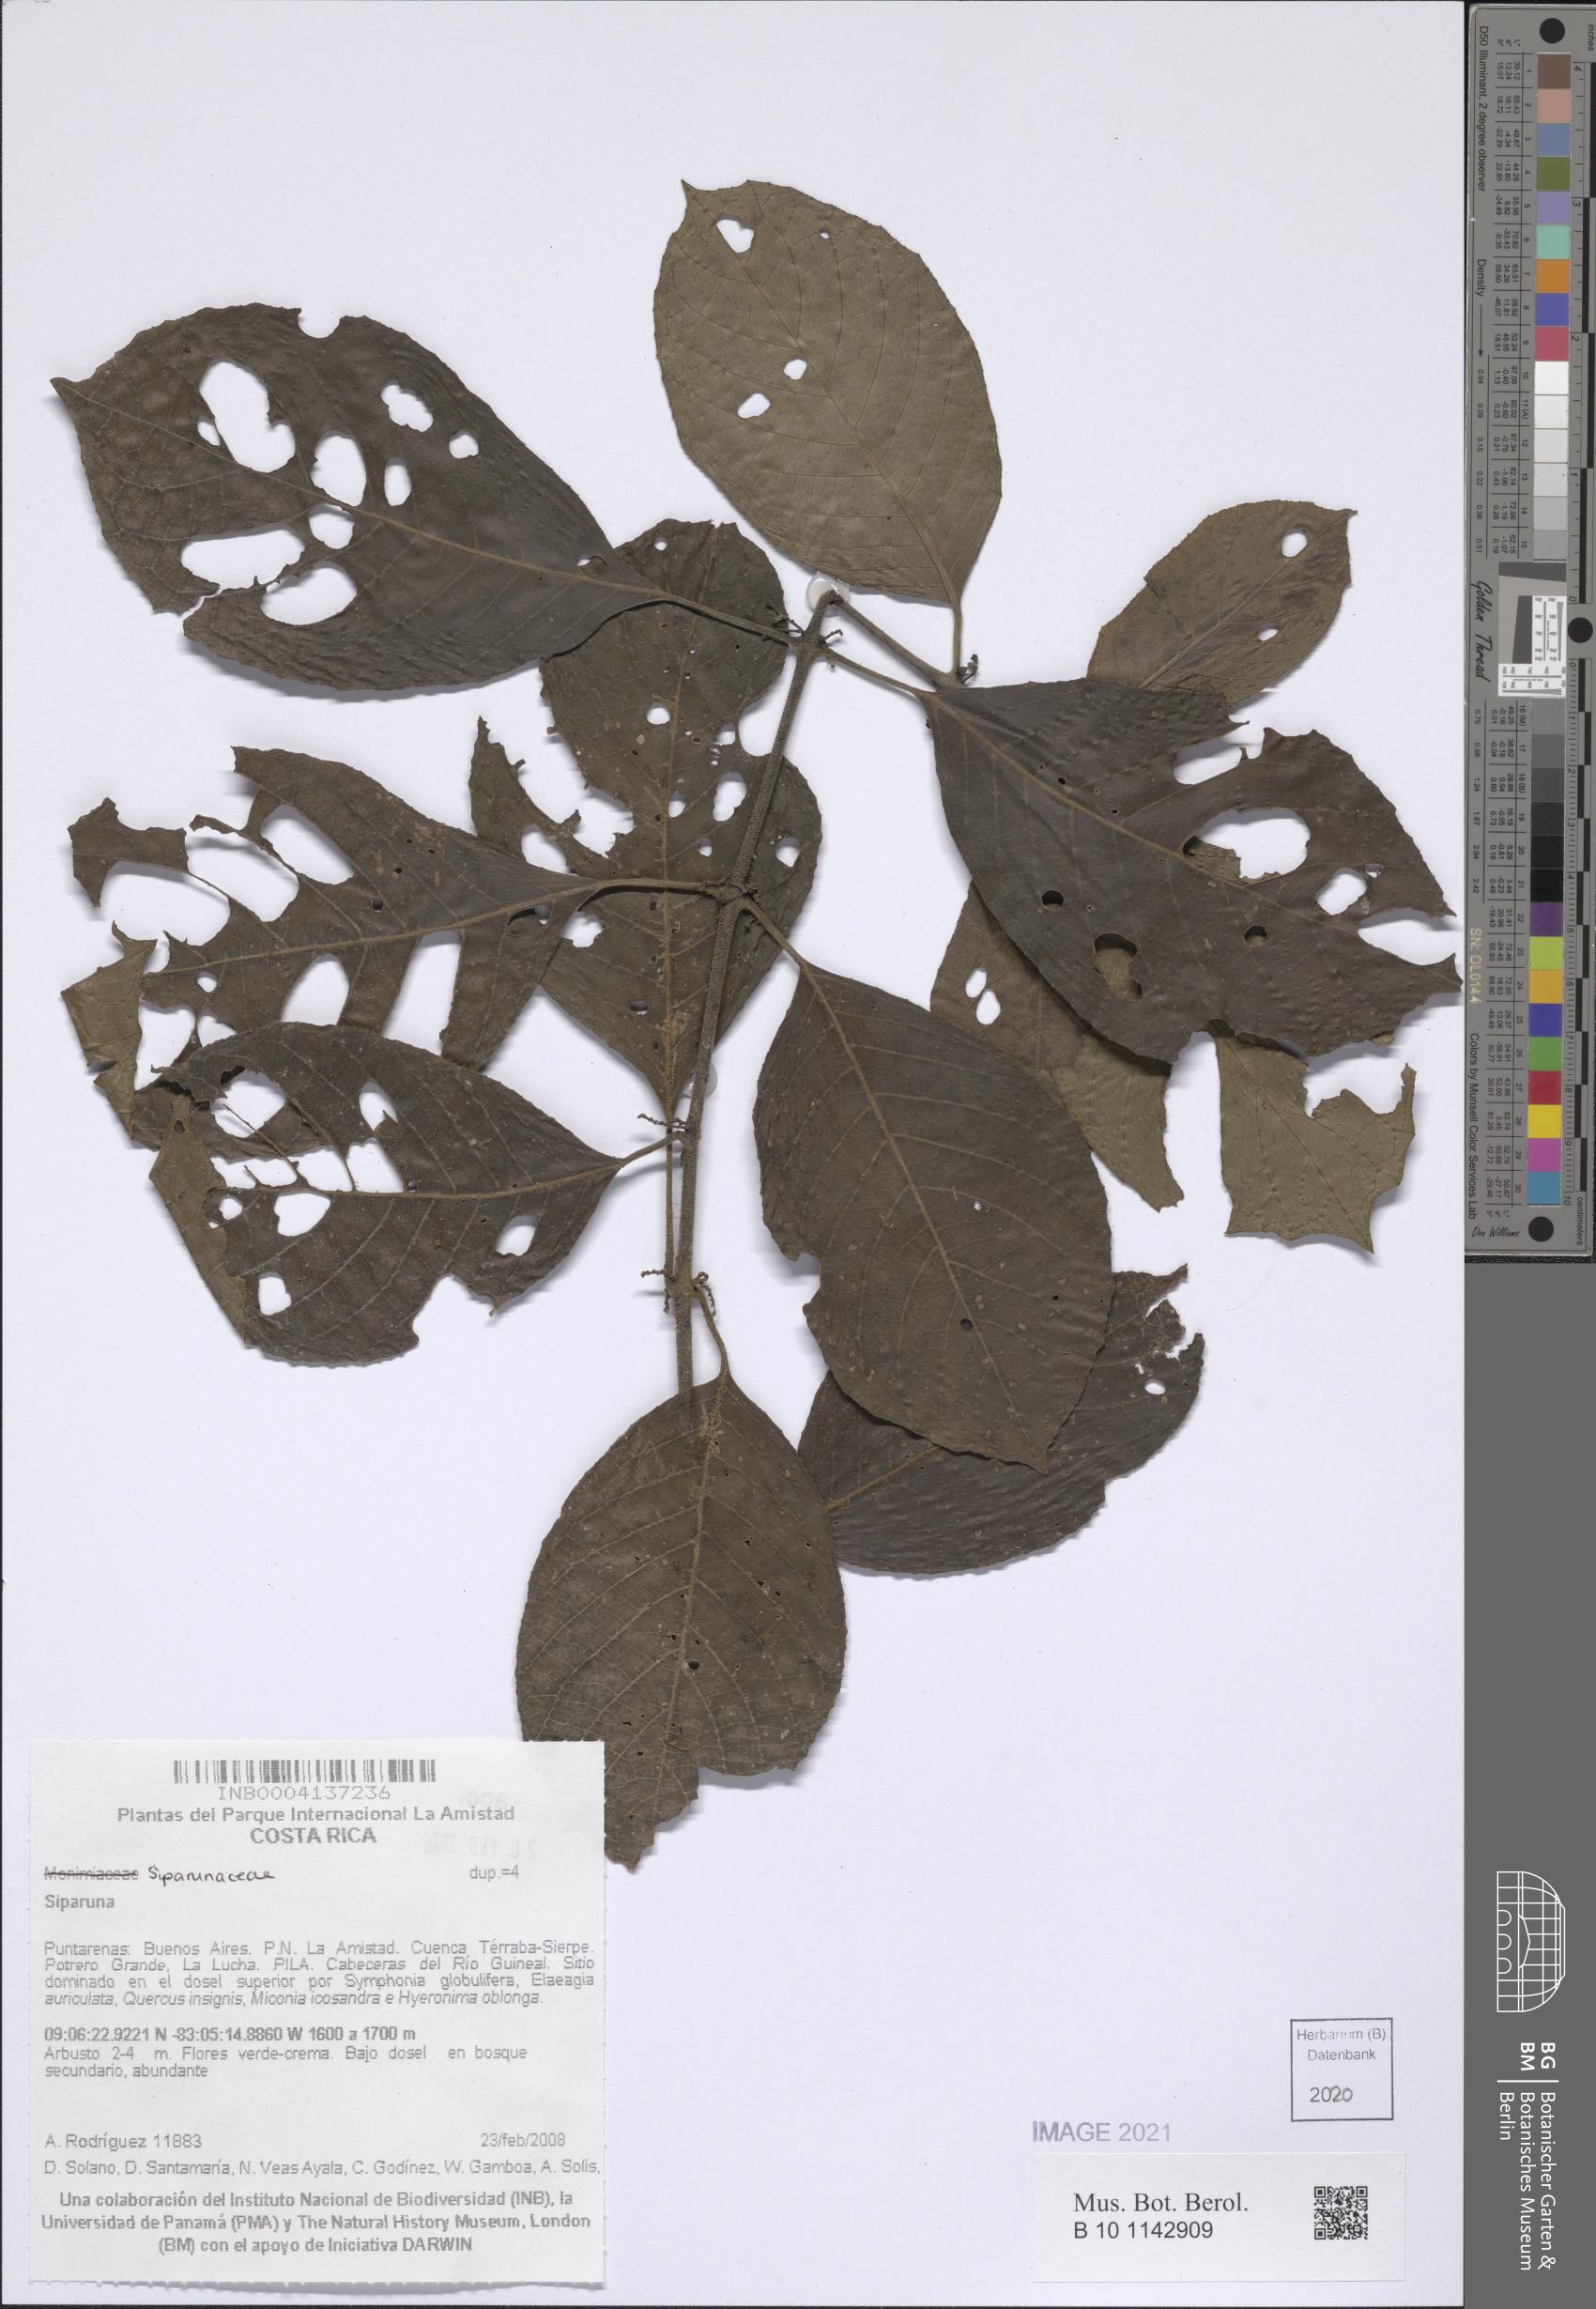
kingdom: Plantae
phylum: Tracheophyta
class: Magnoliopsida
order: Laurales
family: Siparunaceae
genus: Siparuna
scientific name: Siparuna
